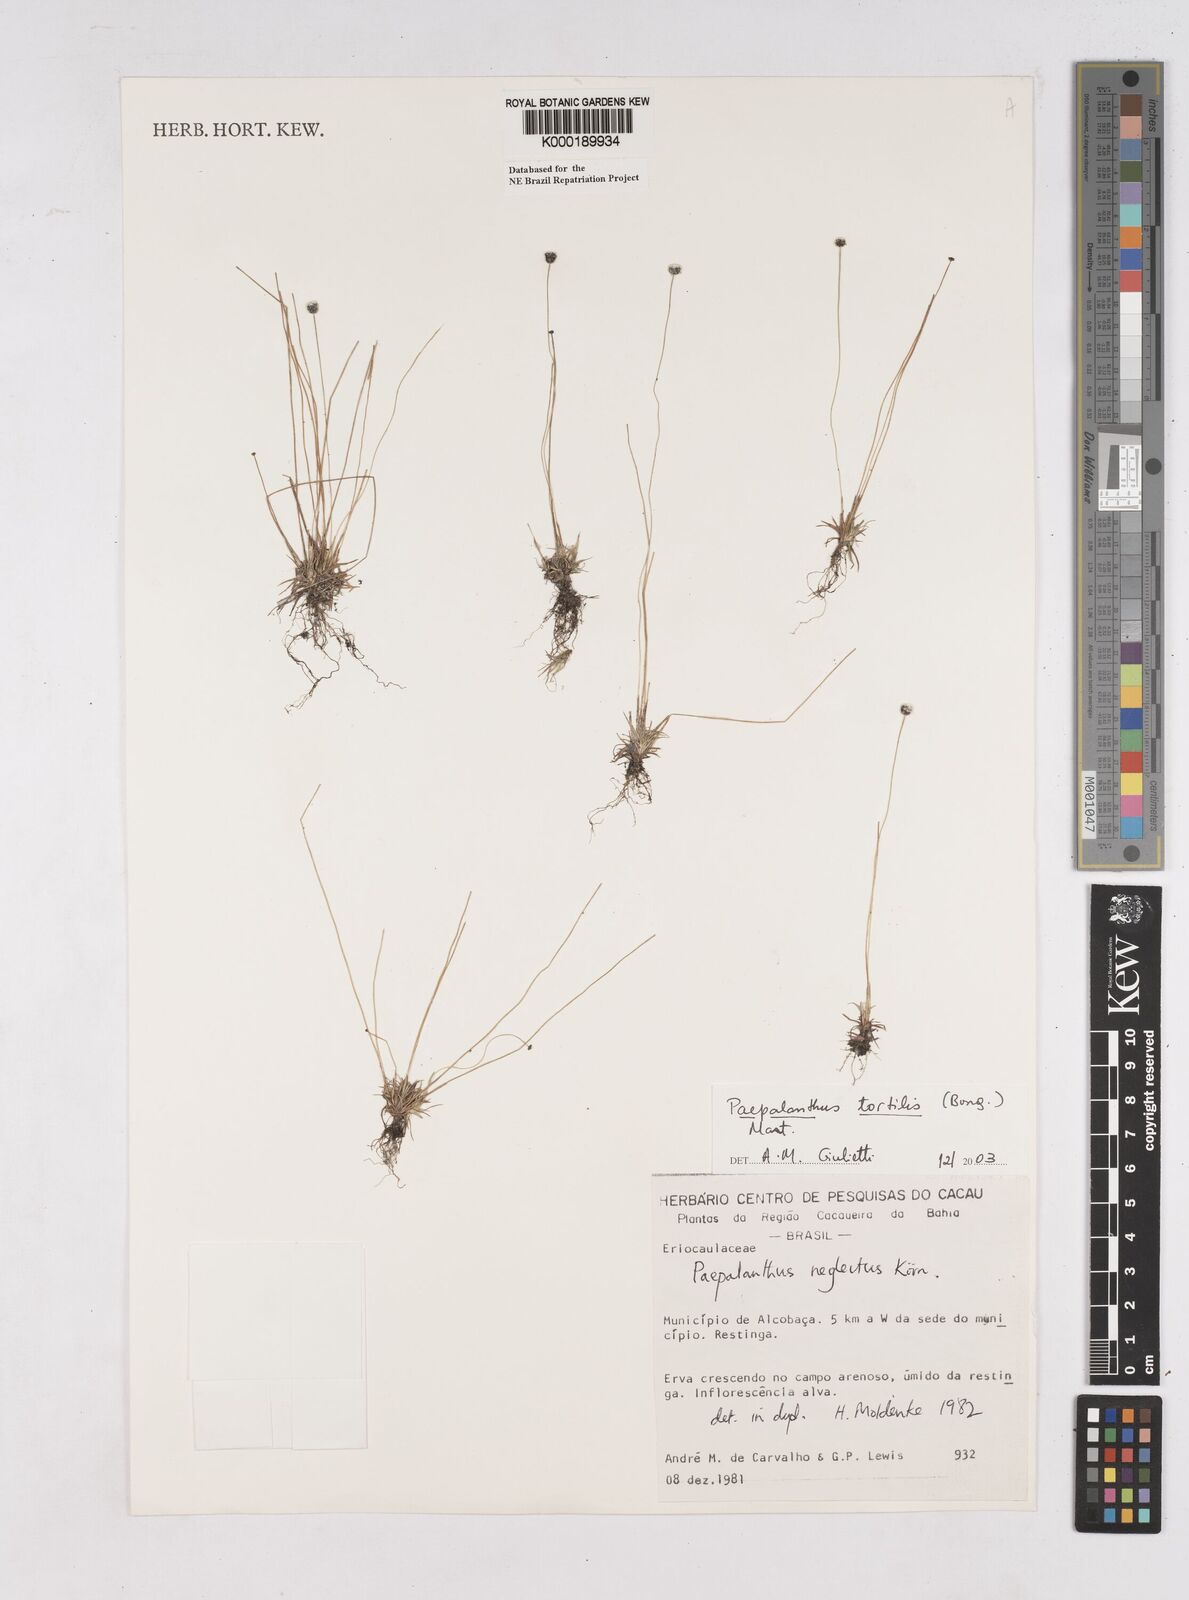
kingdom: Plantae
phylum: Tracheophyta
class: Liliopsida
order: Poales
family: Eriocaulaceae
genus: Paepalanthus
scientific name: Paepalanthus
